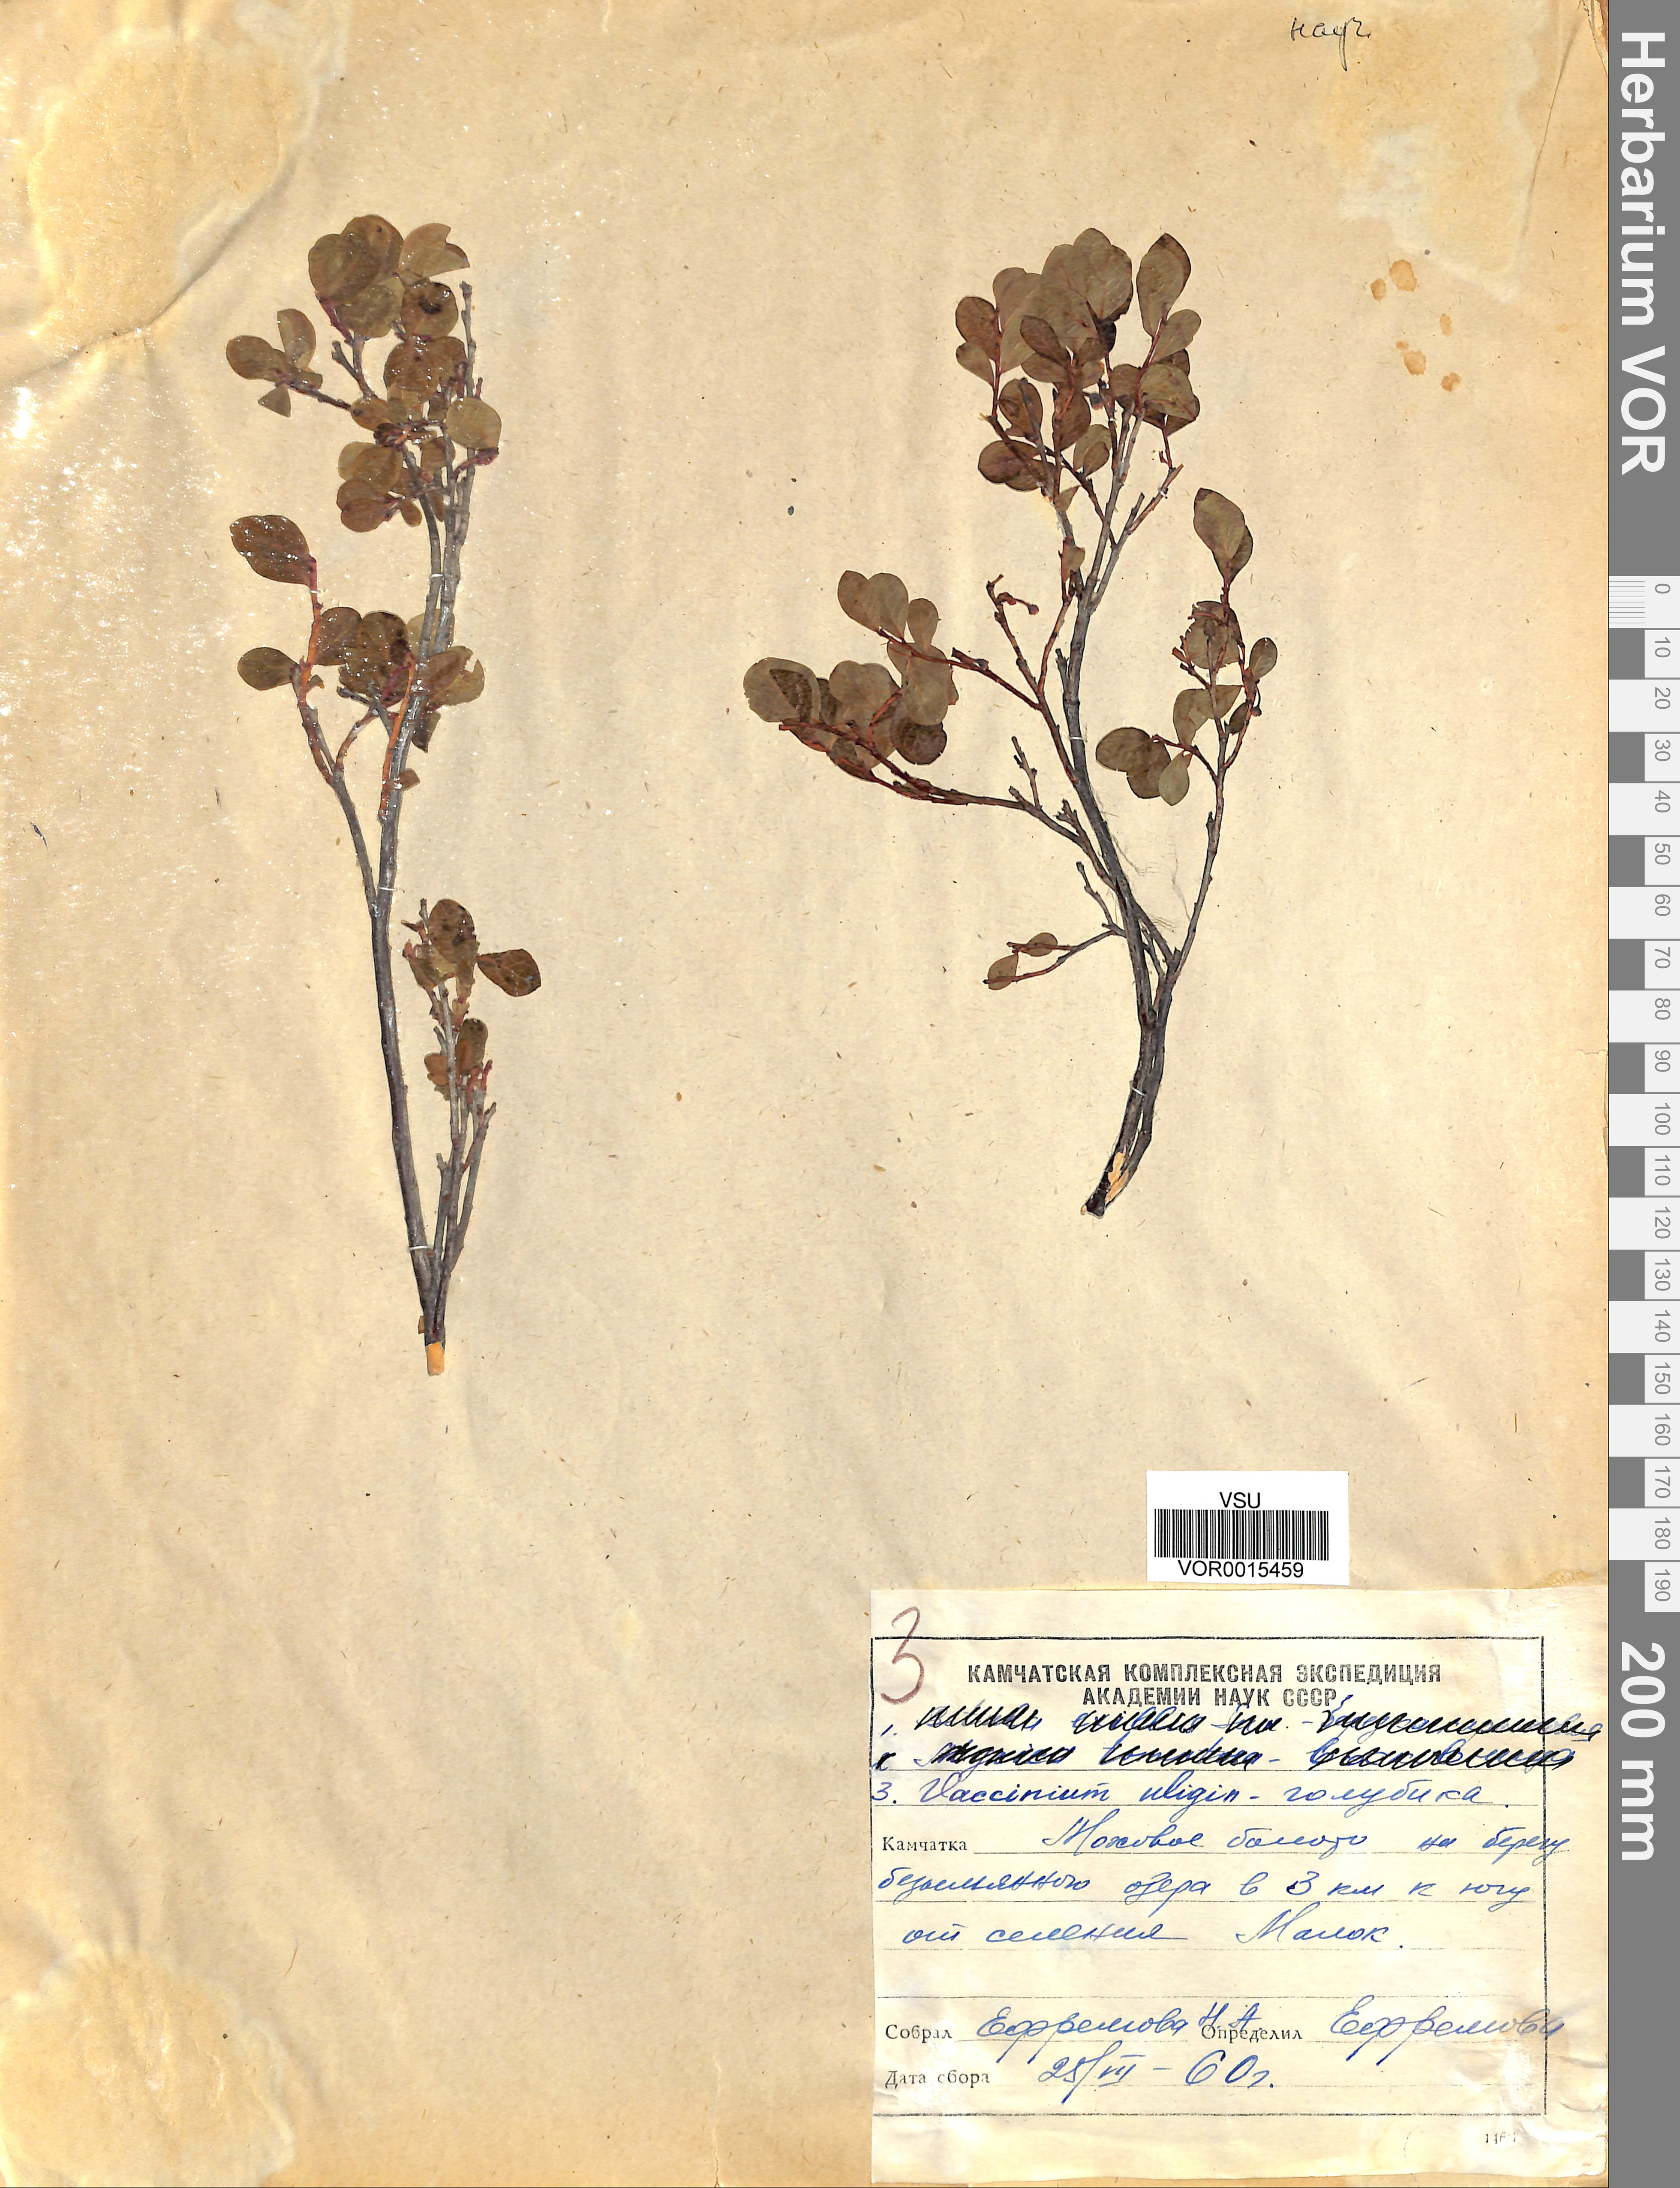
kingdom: Plantae
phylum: Tracheophyta
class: Magnoliopsida
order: Ericales
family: Ericaceae
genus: Vaccinium
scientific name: Vaccinium uliginosum
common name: Bog bilberry
